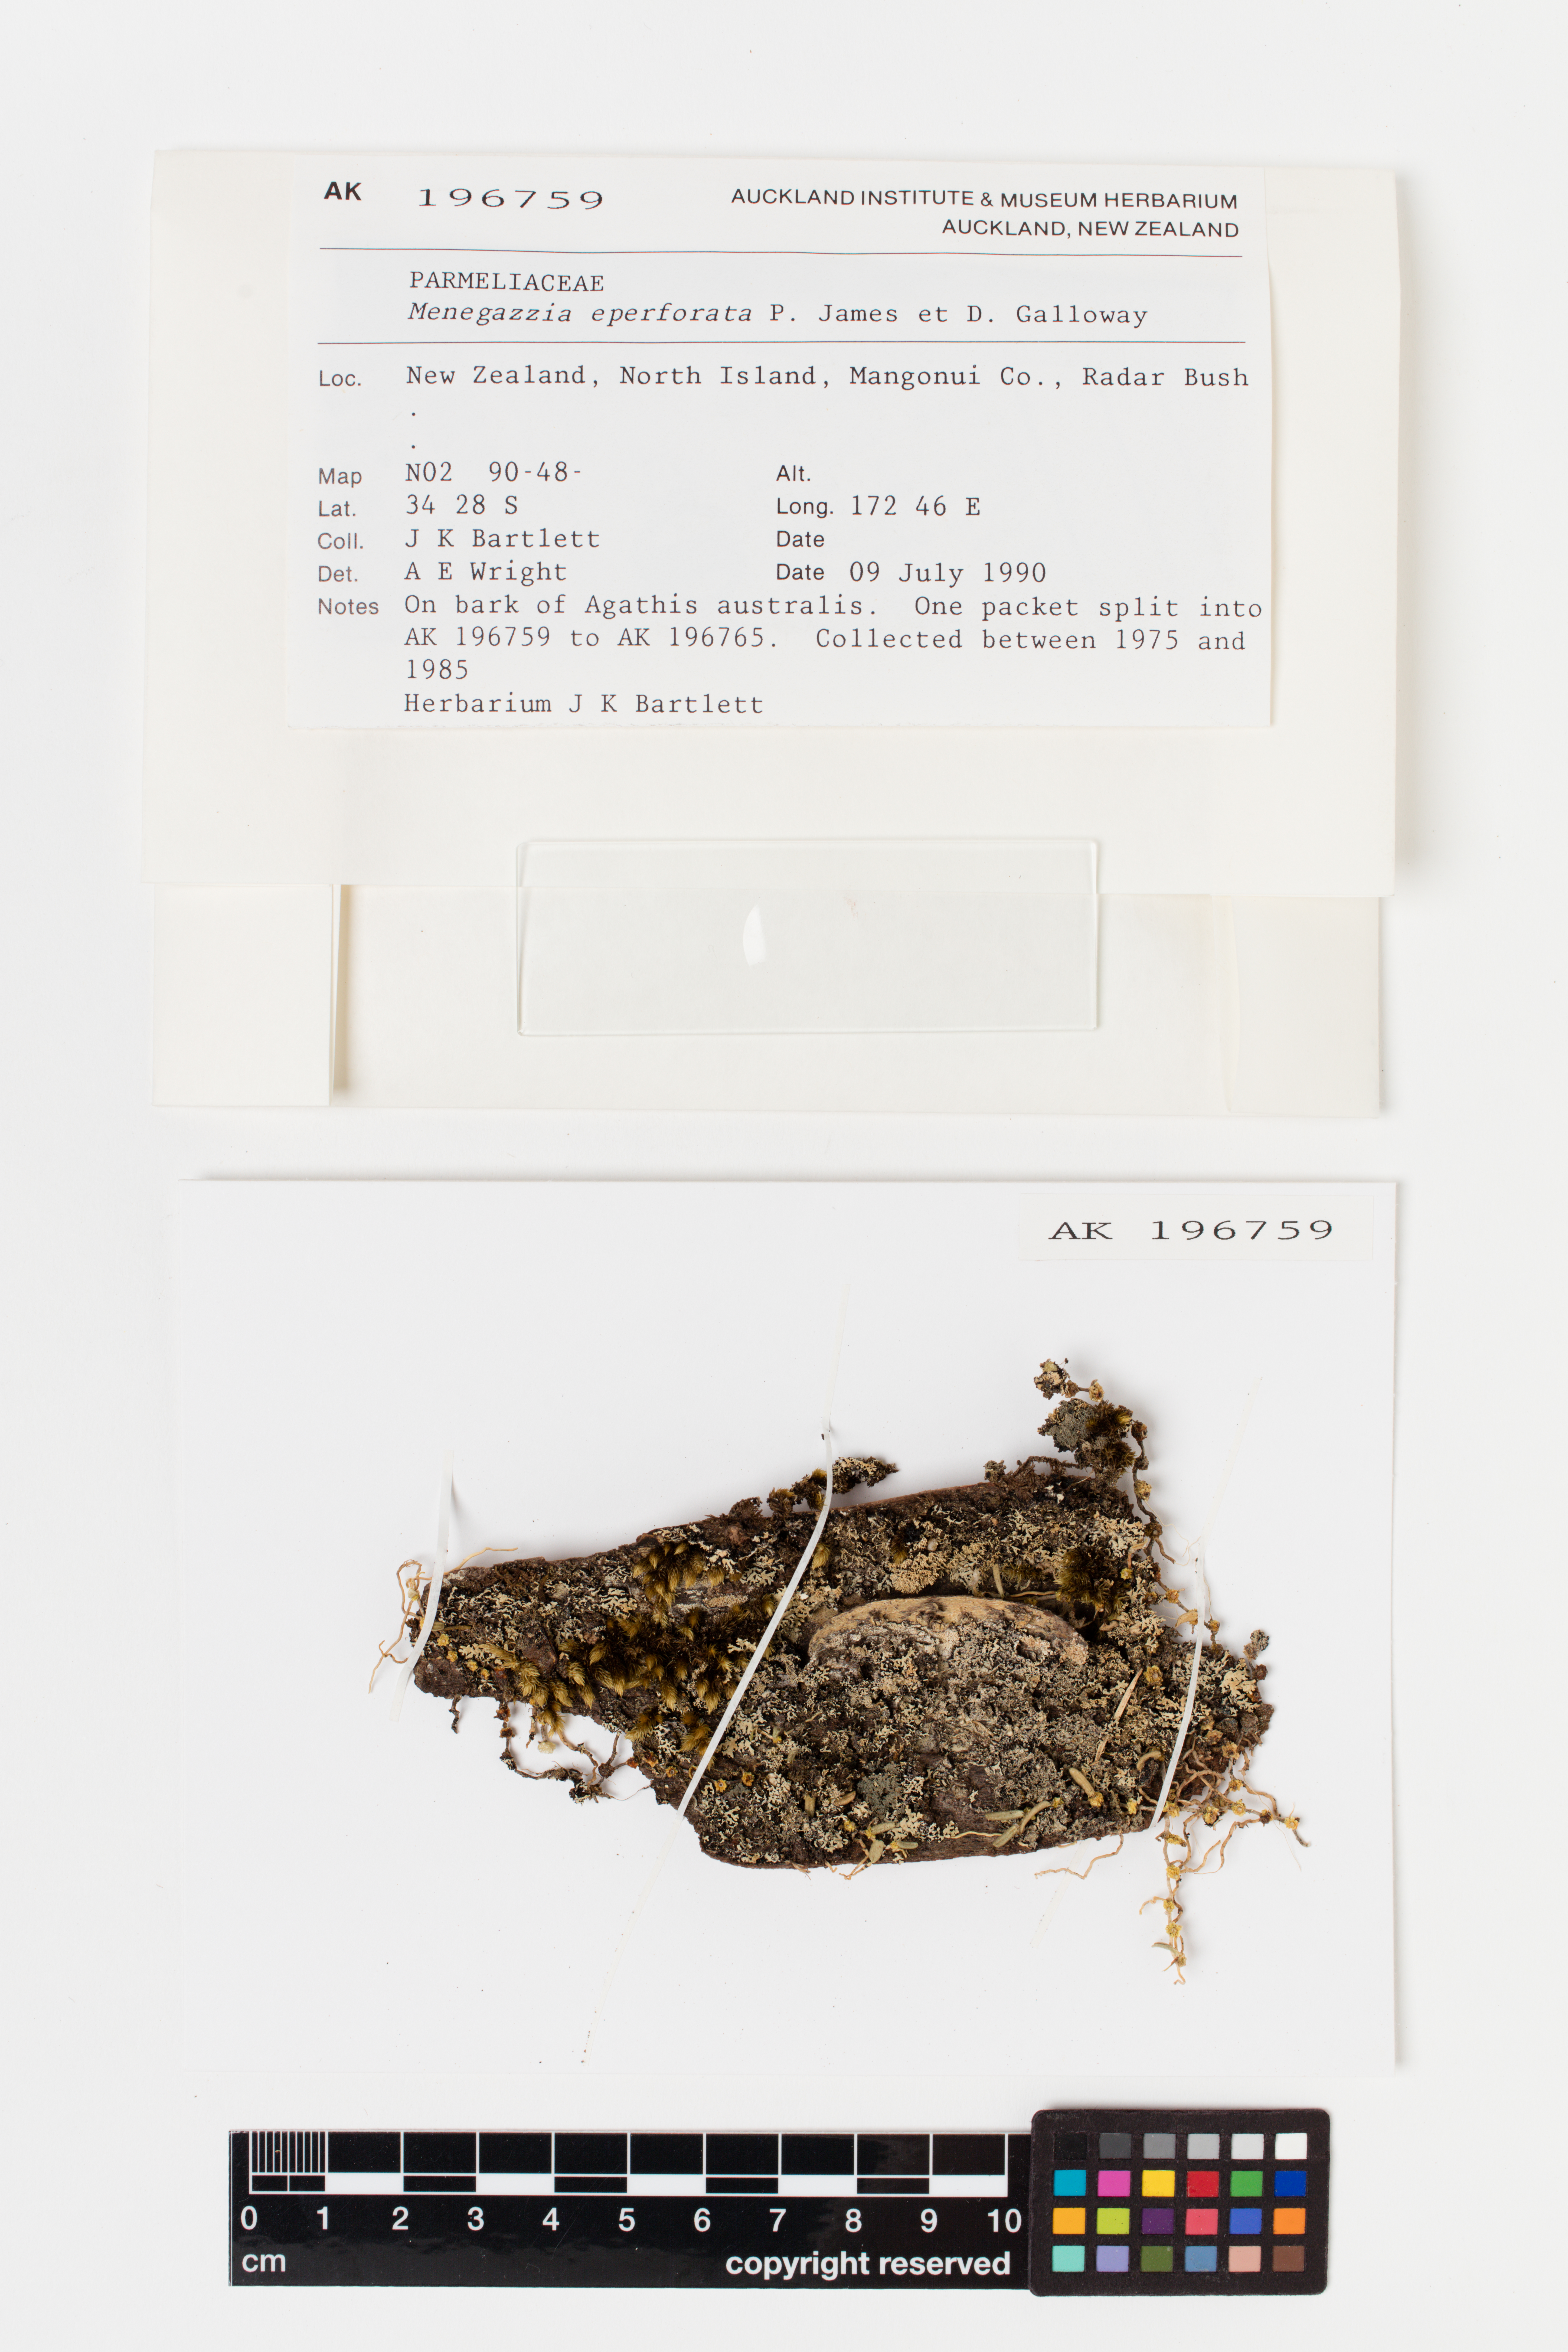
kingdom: Fungi
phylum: Ascomycota
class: Lecanoromycetes
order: Lecanorales
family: Parmeliaceae
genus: Menegazzia
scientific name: Menegazzia eperforata
